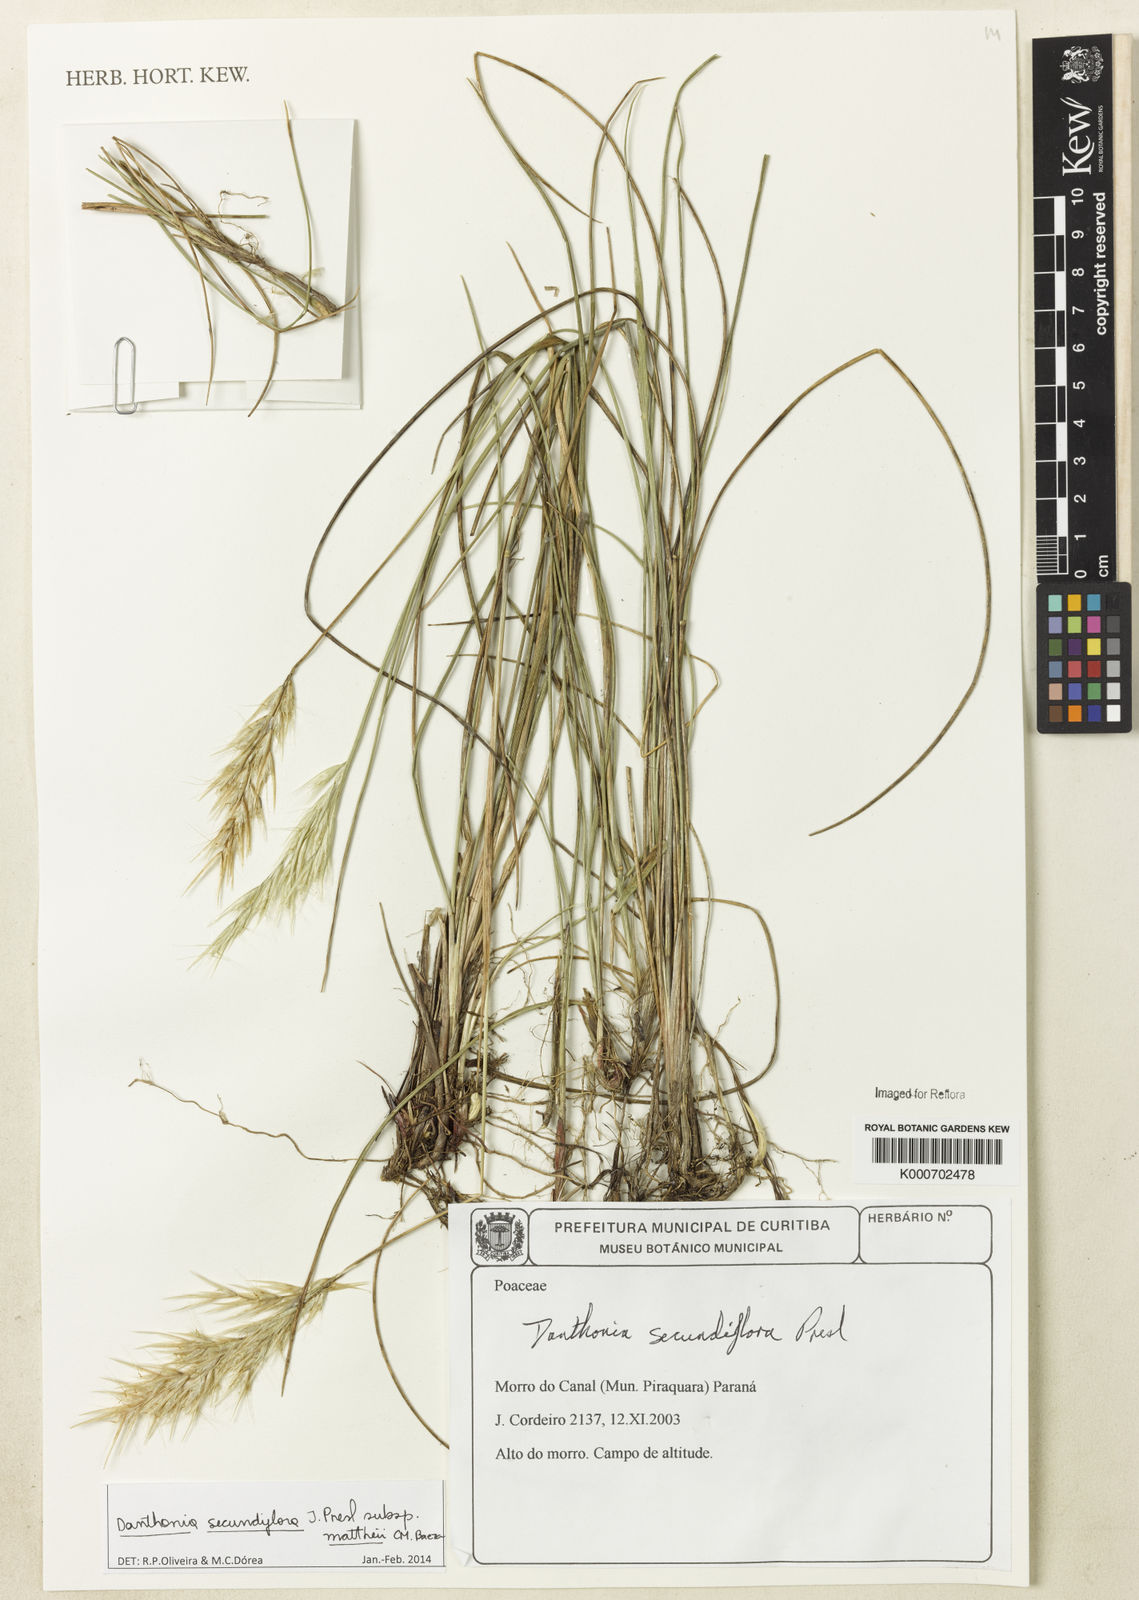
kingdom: Plantae
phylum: Tracheophyta
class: Liliopsida
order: Poales
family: Poaceae
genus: Danthonia
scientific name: Danthonia secundiflora
